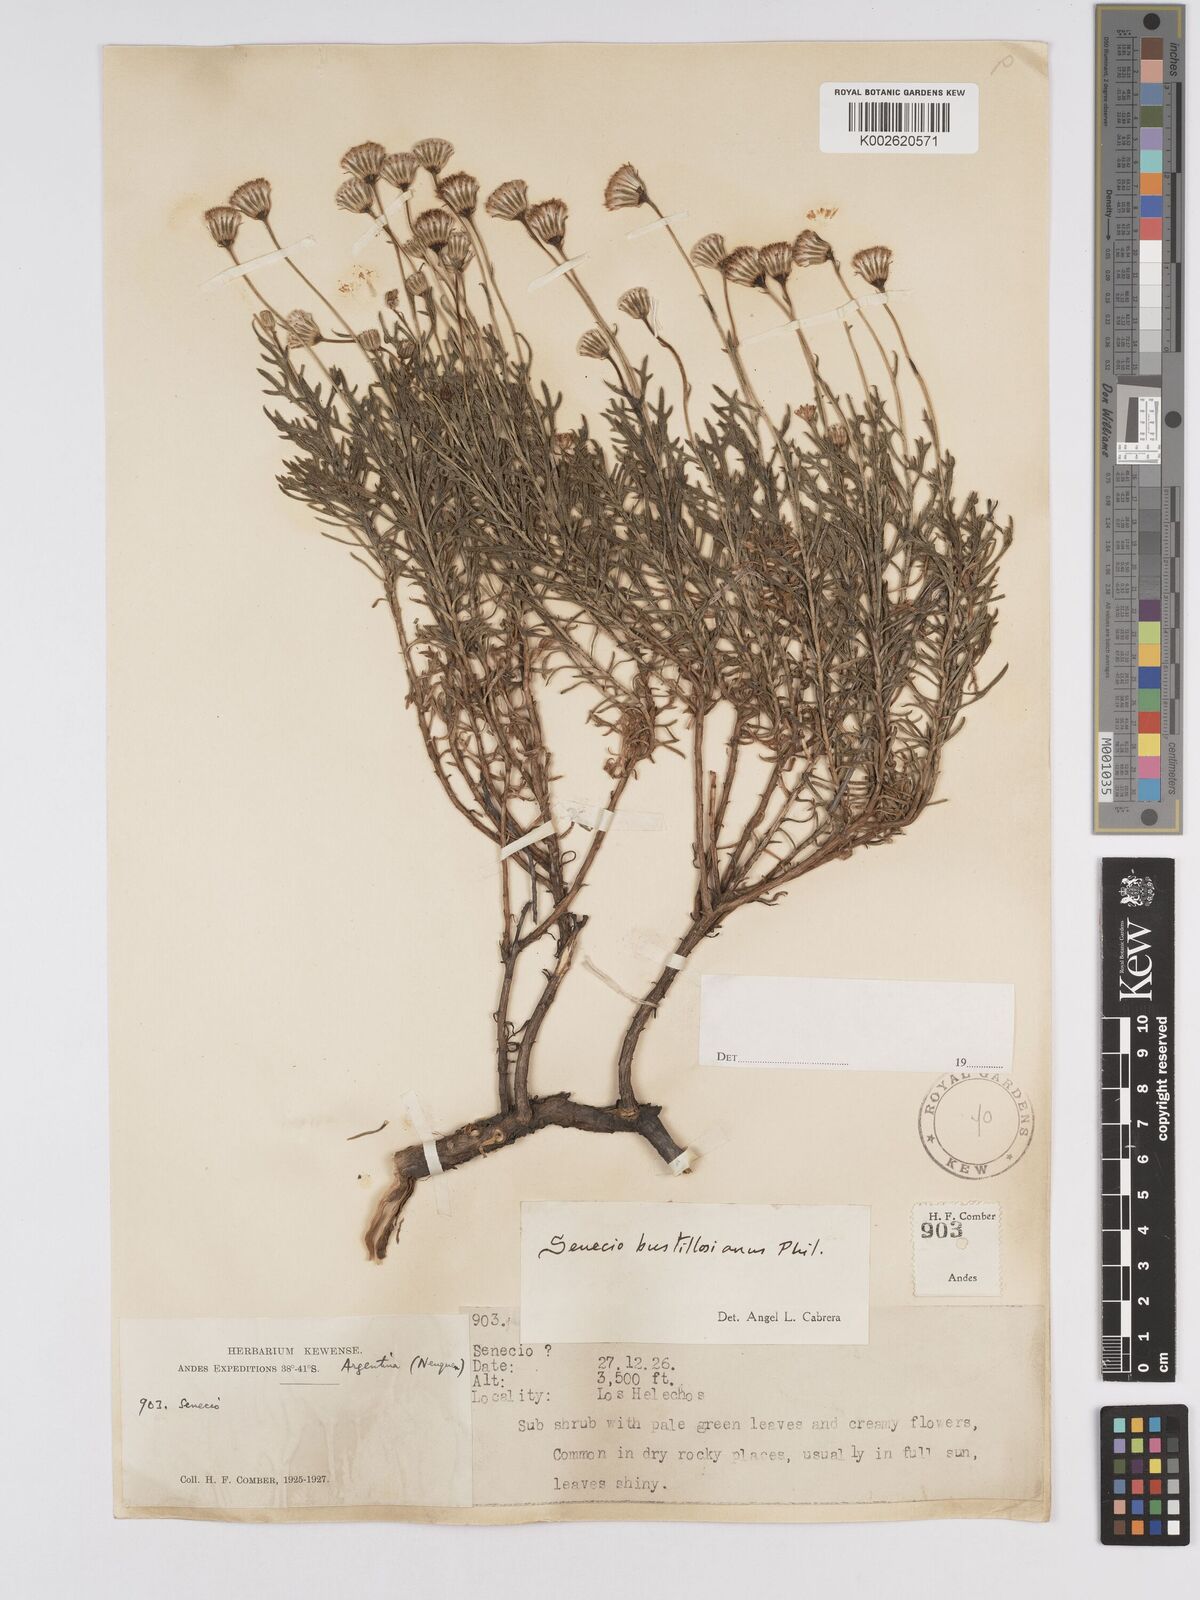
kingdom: Plantae
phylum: Tracheophyta
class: Magnoliopsida
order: Asterales
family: Asteraceae
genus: Senecio
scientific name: Senecio bustillosianus
